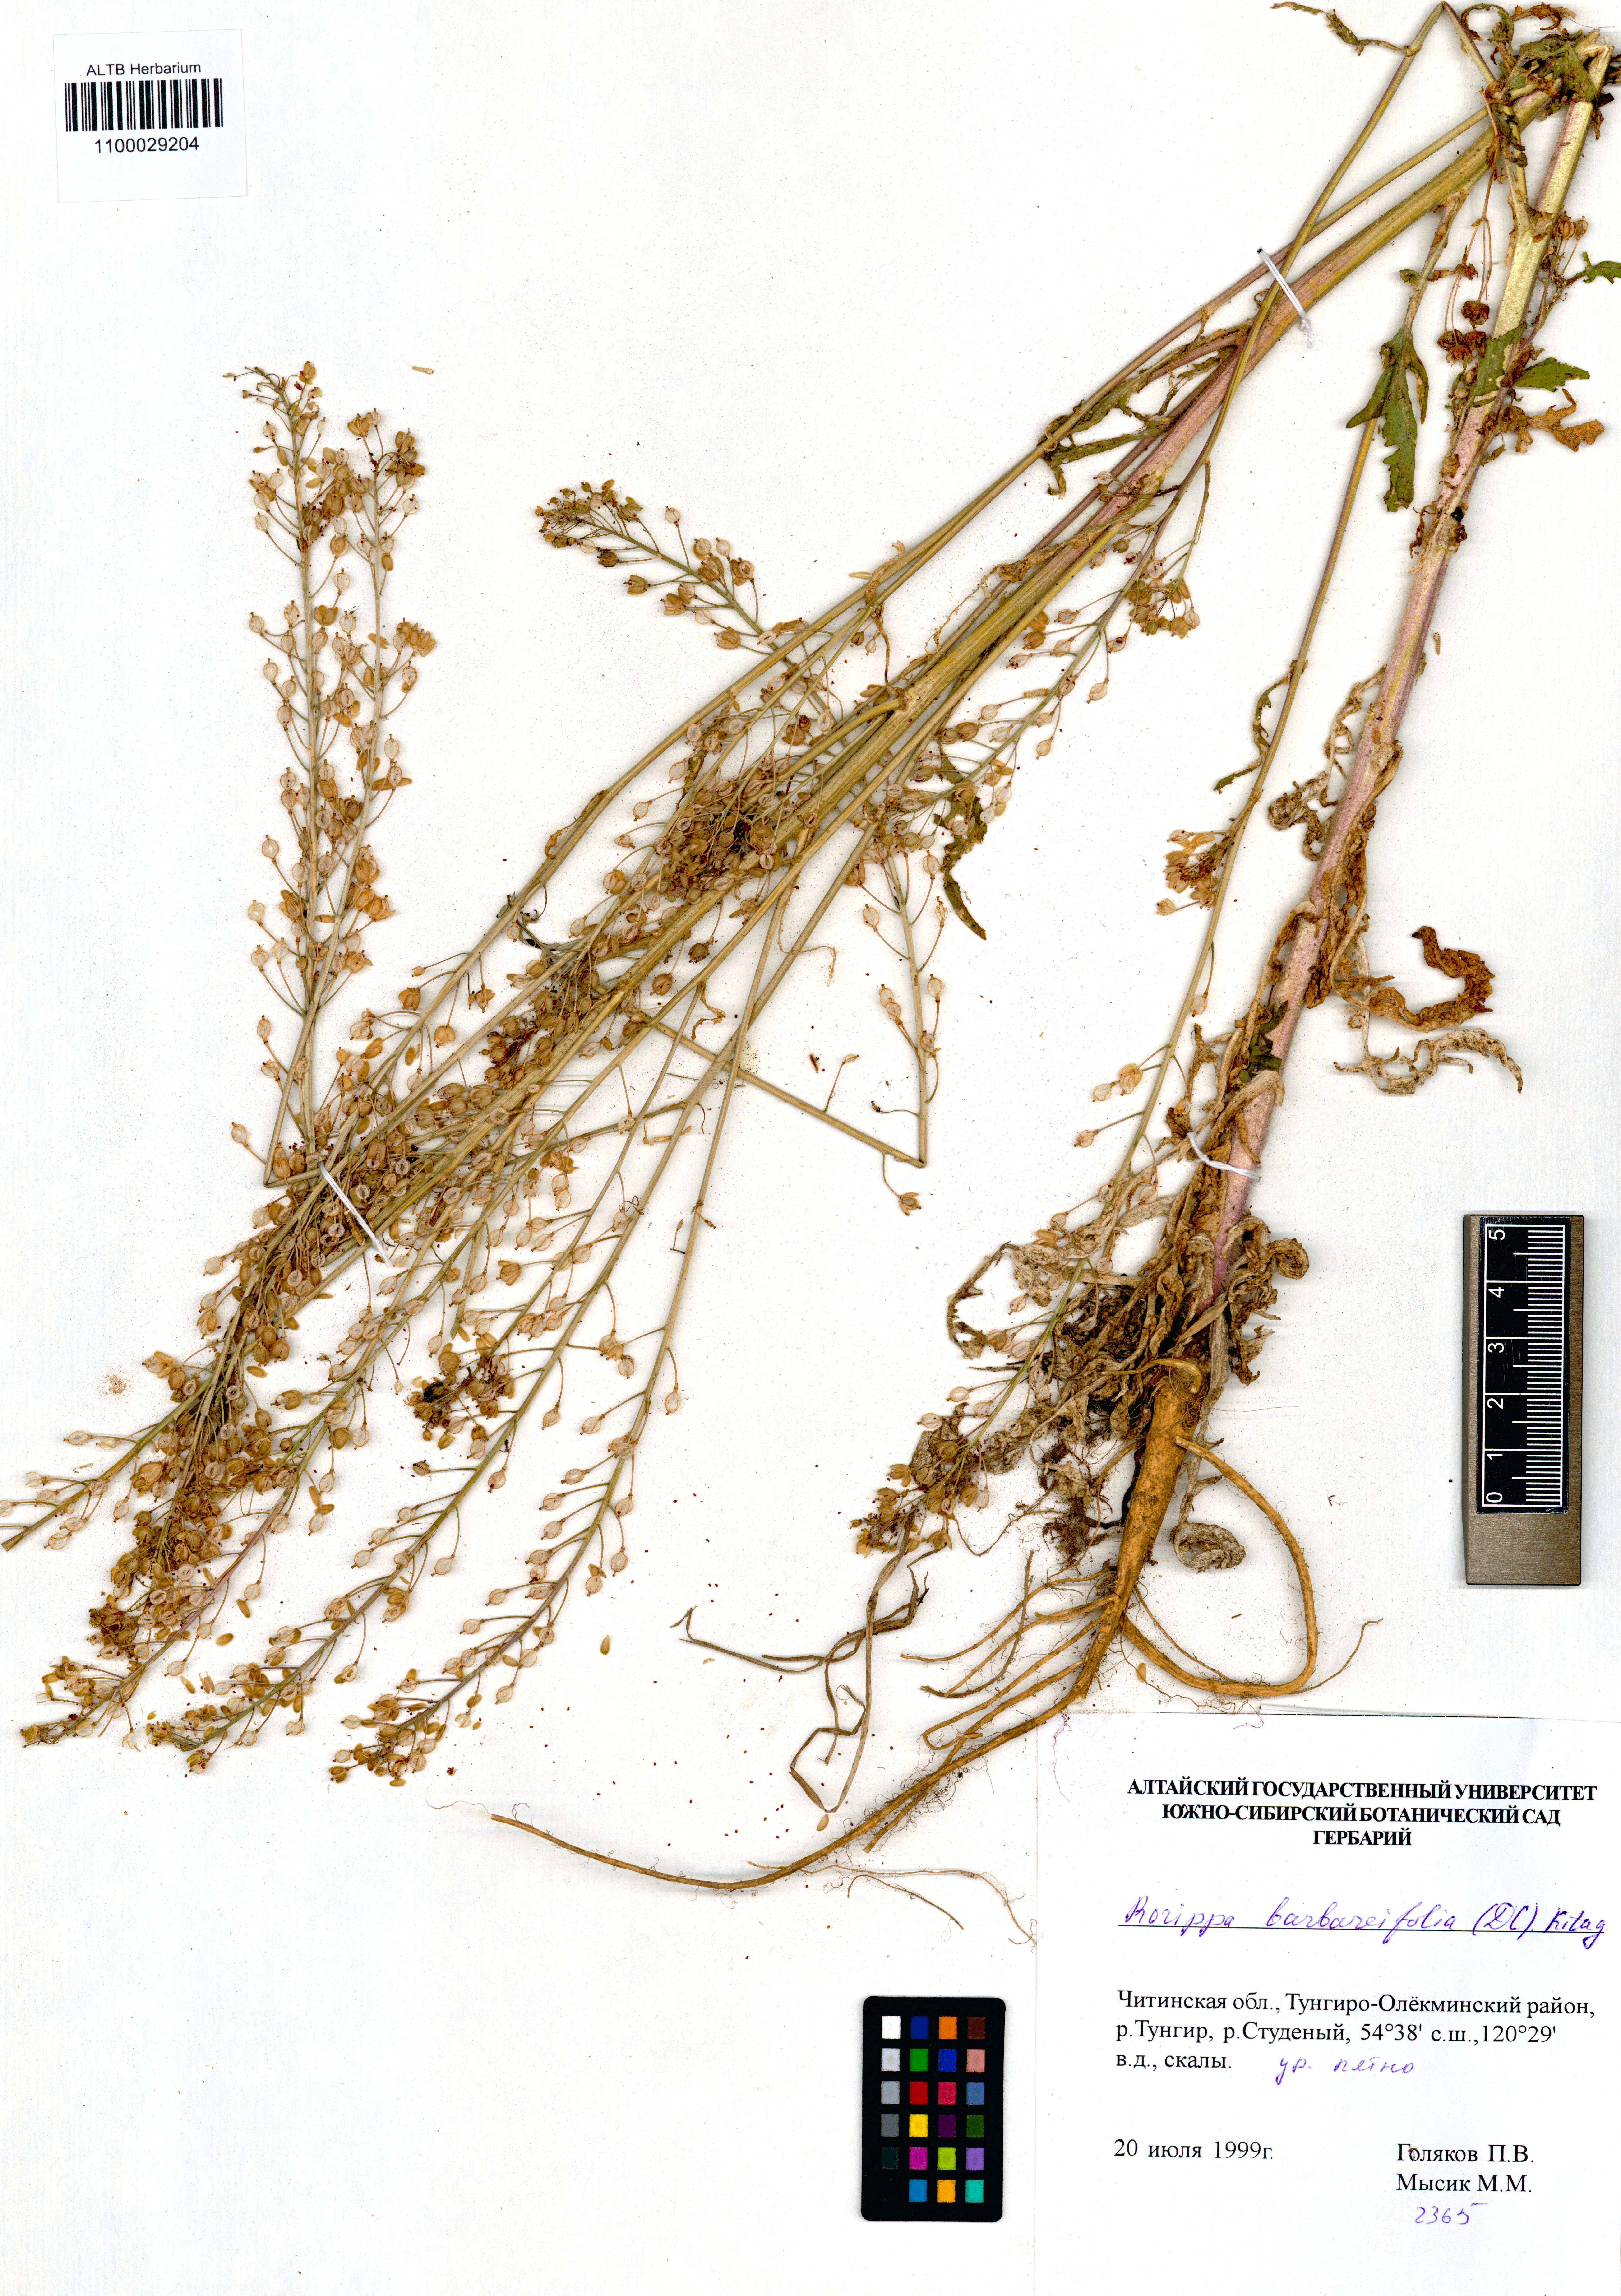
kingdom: Plantae
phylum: Tracheophyta
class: Magnoliopsida
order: Brassicales
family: Brassicaceae
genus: Rorippa
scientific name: Rorippa barbaraefolia
